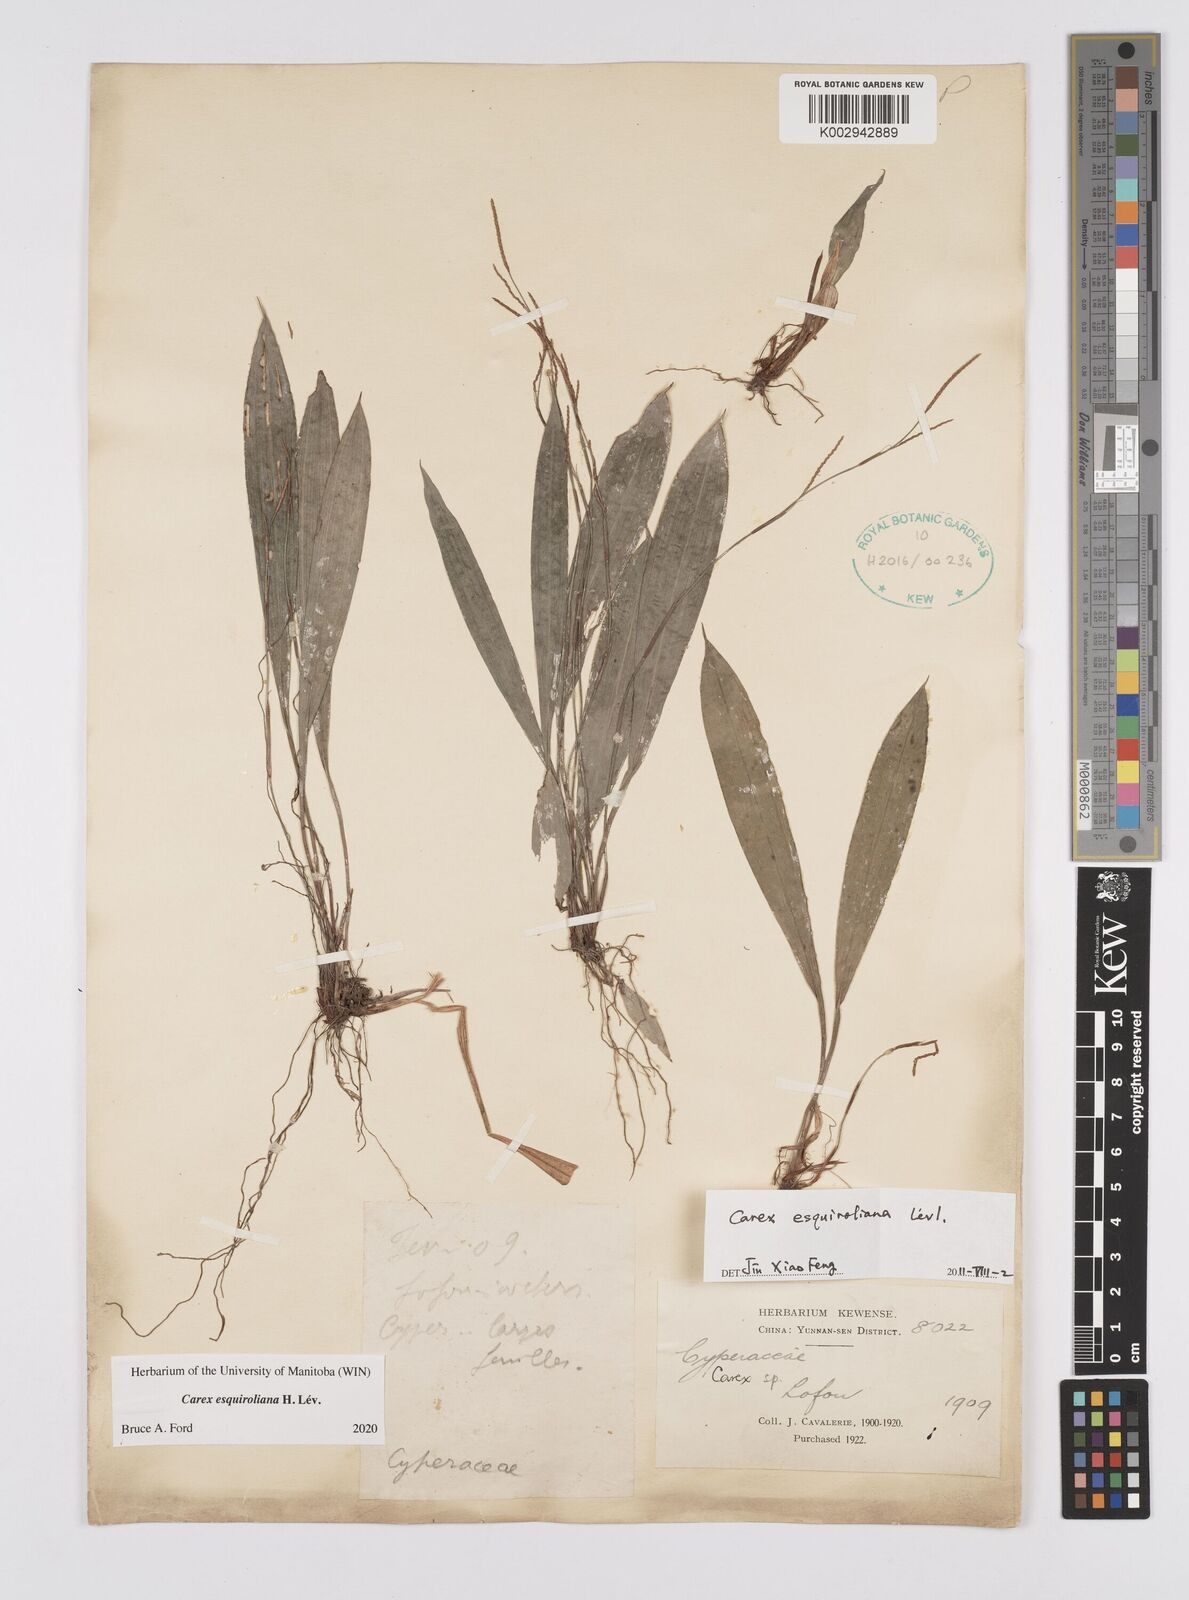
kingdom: Plantae
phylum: Tracheophyta
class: Liliopsida
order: Poales
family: Cyperaceae
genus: Carex
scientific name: Carex esquiroliana
